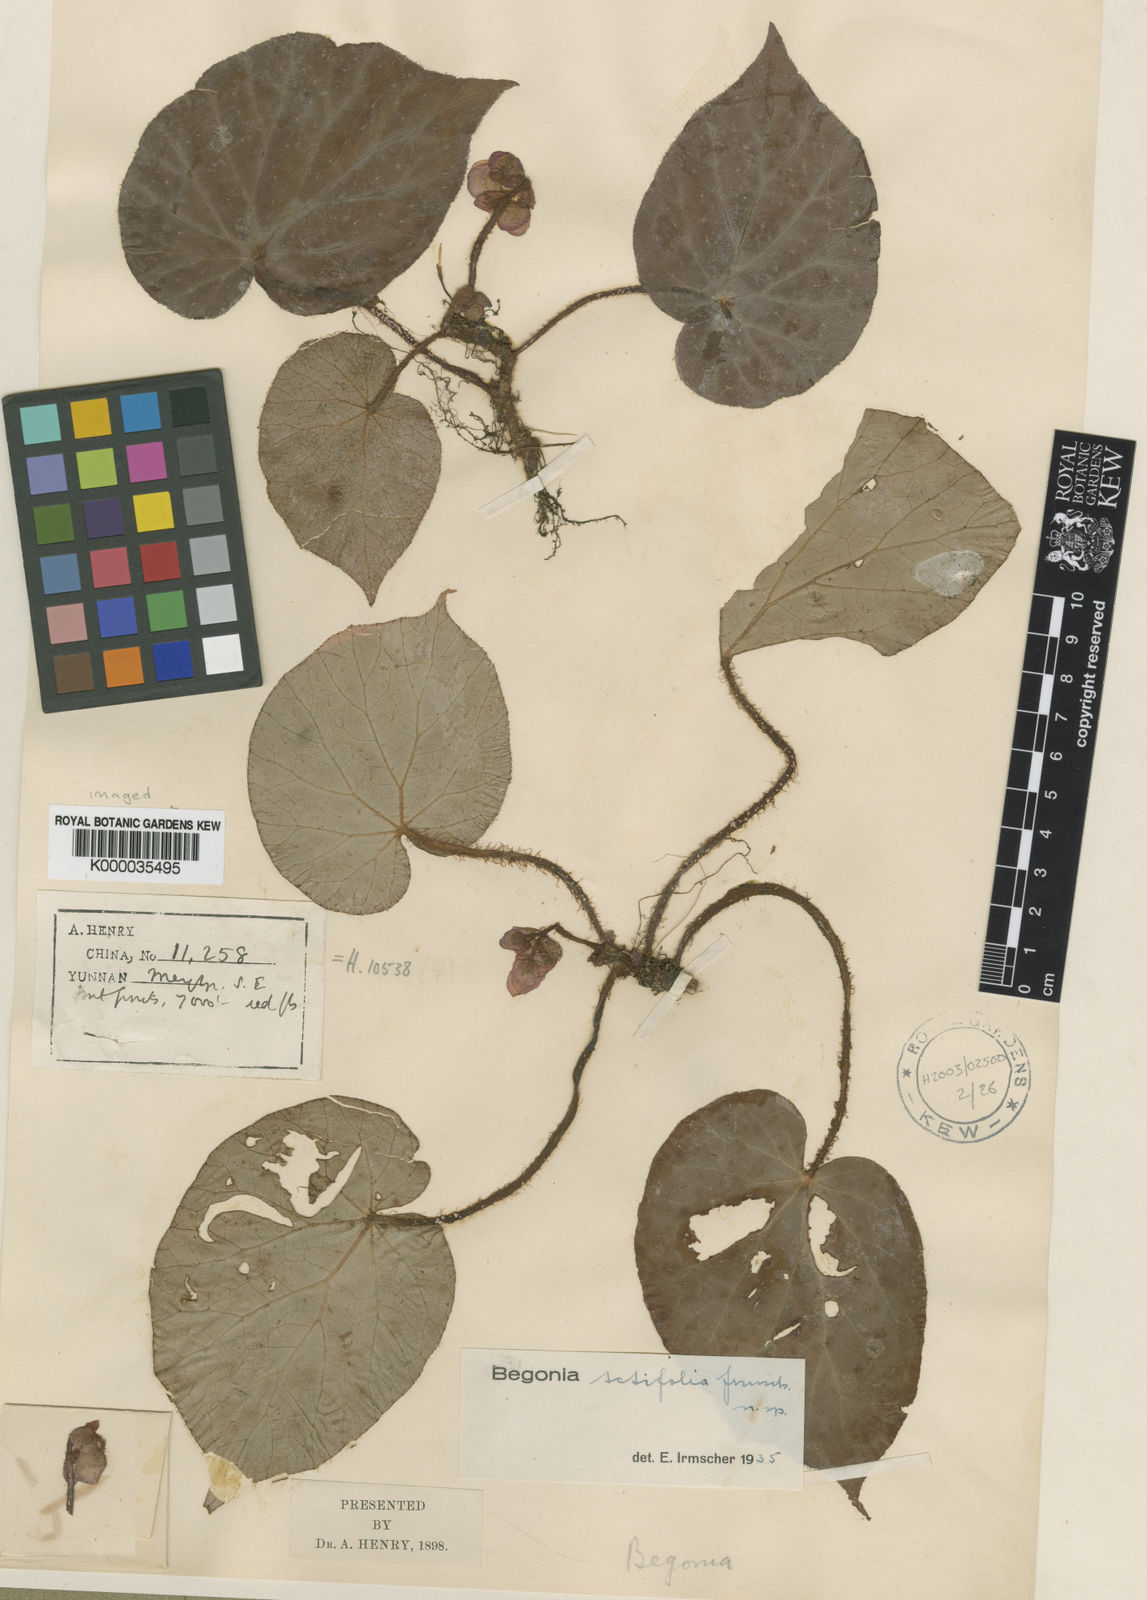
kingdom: Plantae
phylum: Tracheophyta
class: Magnoliopsida
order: Cucurbitales
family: Begoniaceae
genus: Begonia
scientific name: Begonia setifolia
